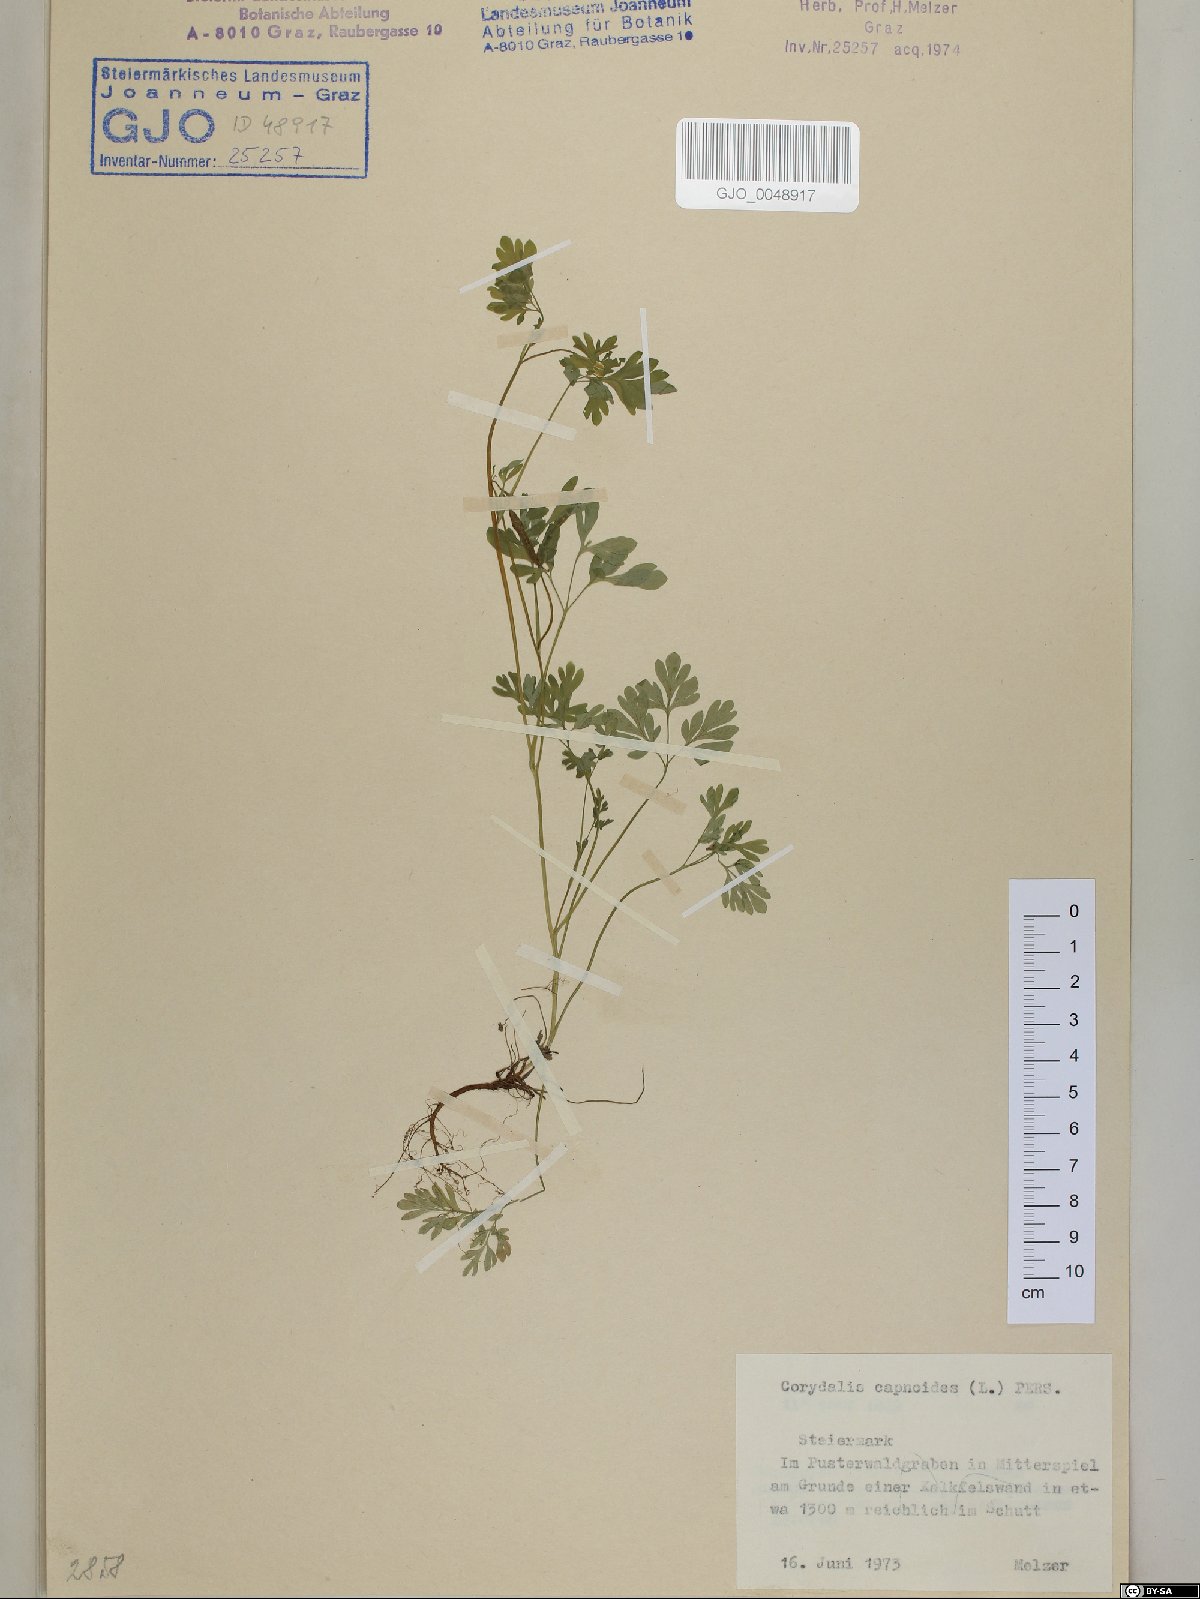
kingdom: Plantae
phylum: Tracheophyta
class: Magnoliopsida
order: Ranunculales
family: Papaveraceae
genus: Corydalis
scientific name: Corydalis capnoides
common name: Beaked corydalis
